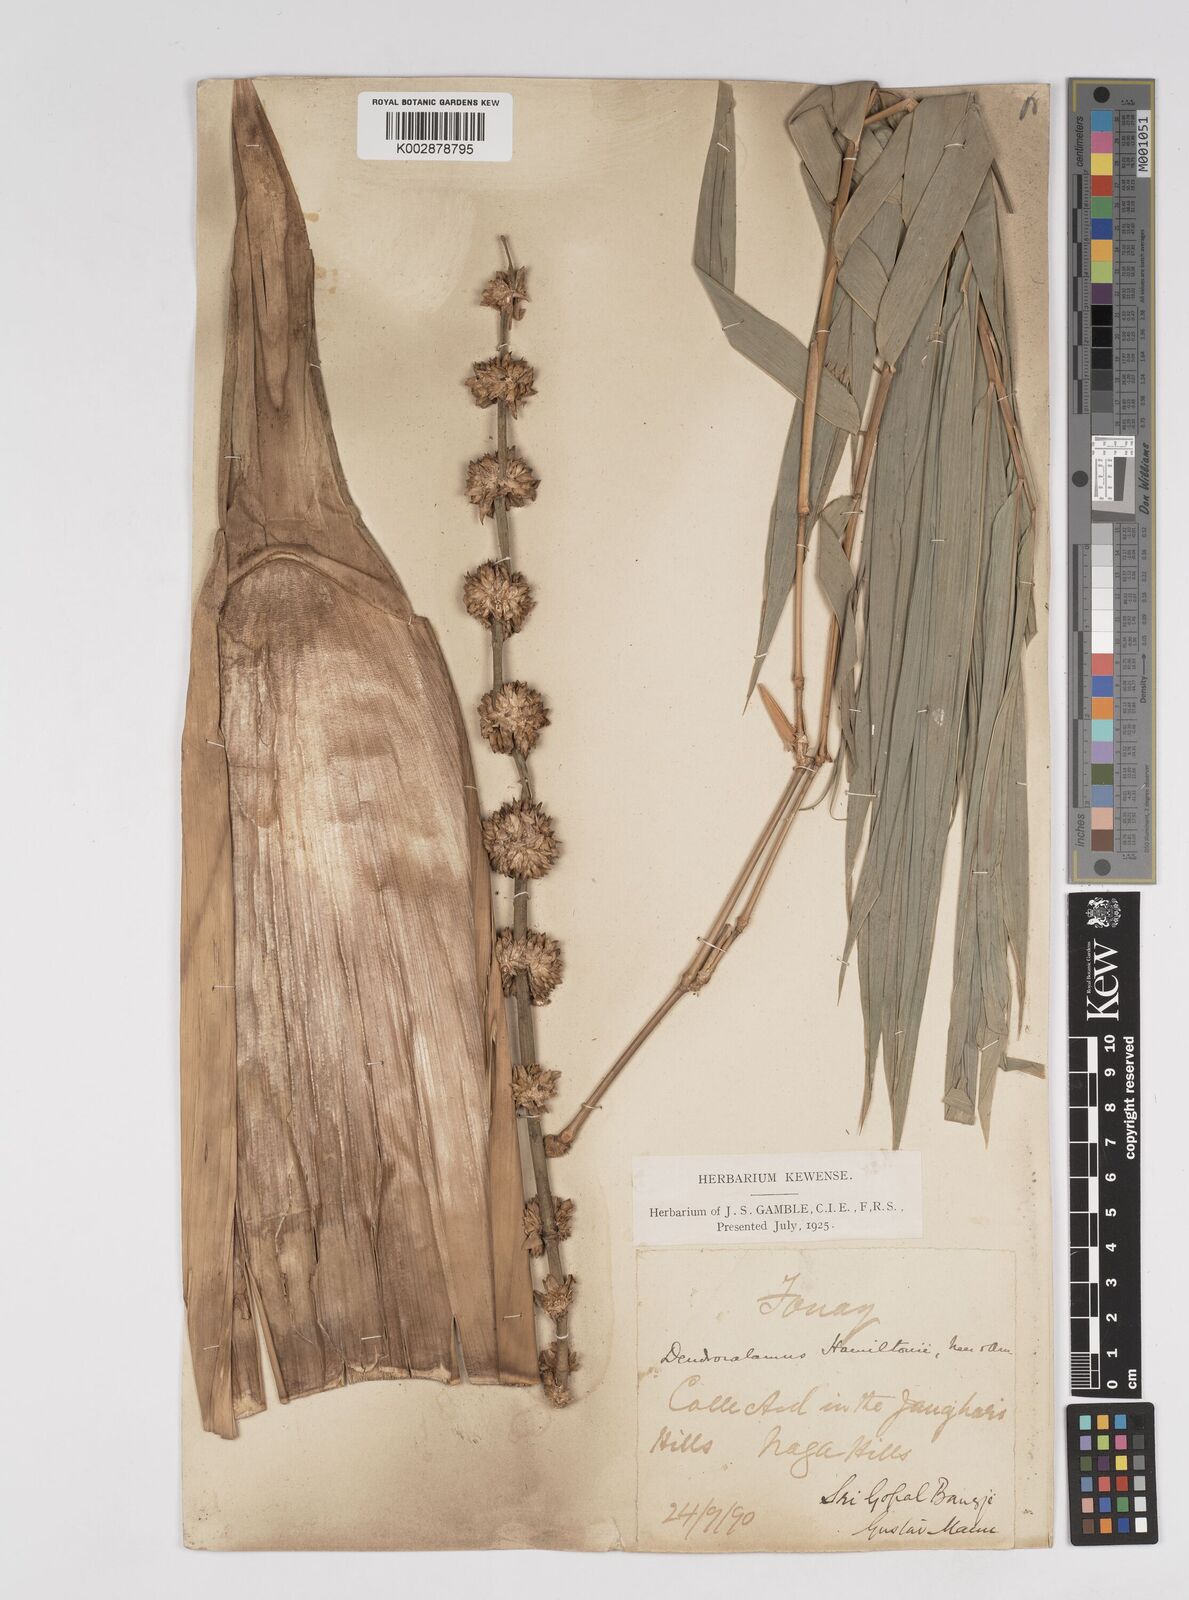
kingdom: Plantae
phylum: Tracheophyta
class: Liliopsida
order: Poales
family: Poaceae
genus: Dendrocalamus
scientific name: Dendrocalamus hamiltonii
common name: Tama bamboo
